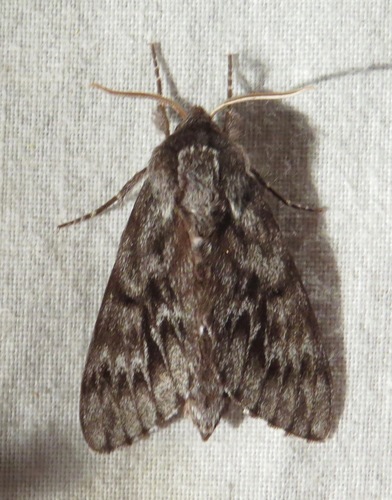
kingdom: Animalia
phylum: Arthropoda
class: Insecta
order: Lepidoptera
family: Sphingidae
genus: Lapara
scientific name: Lapara bombycoides
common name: Northern pine sphinx
